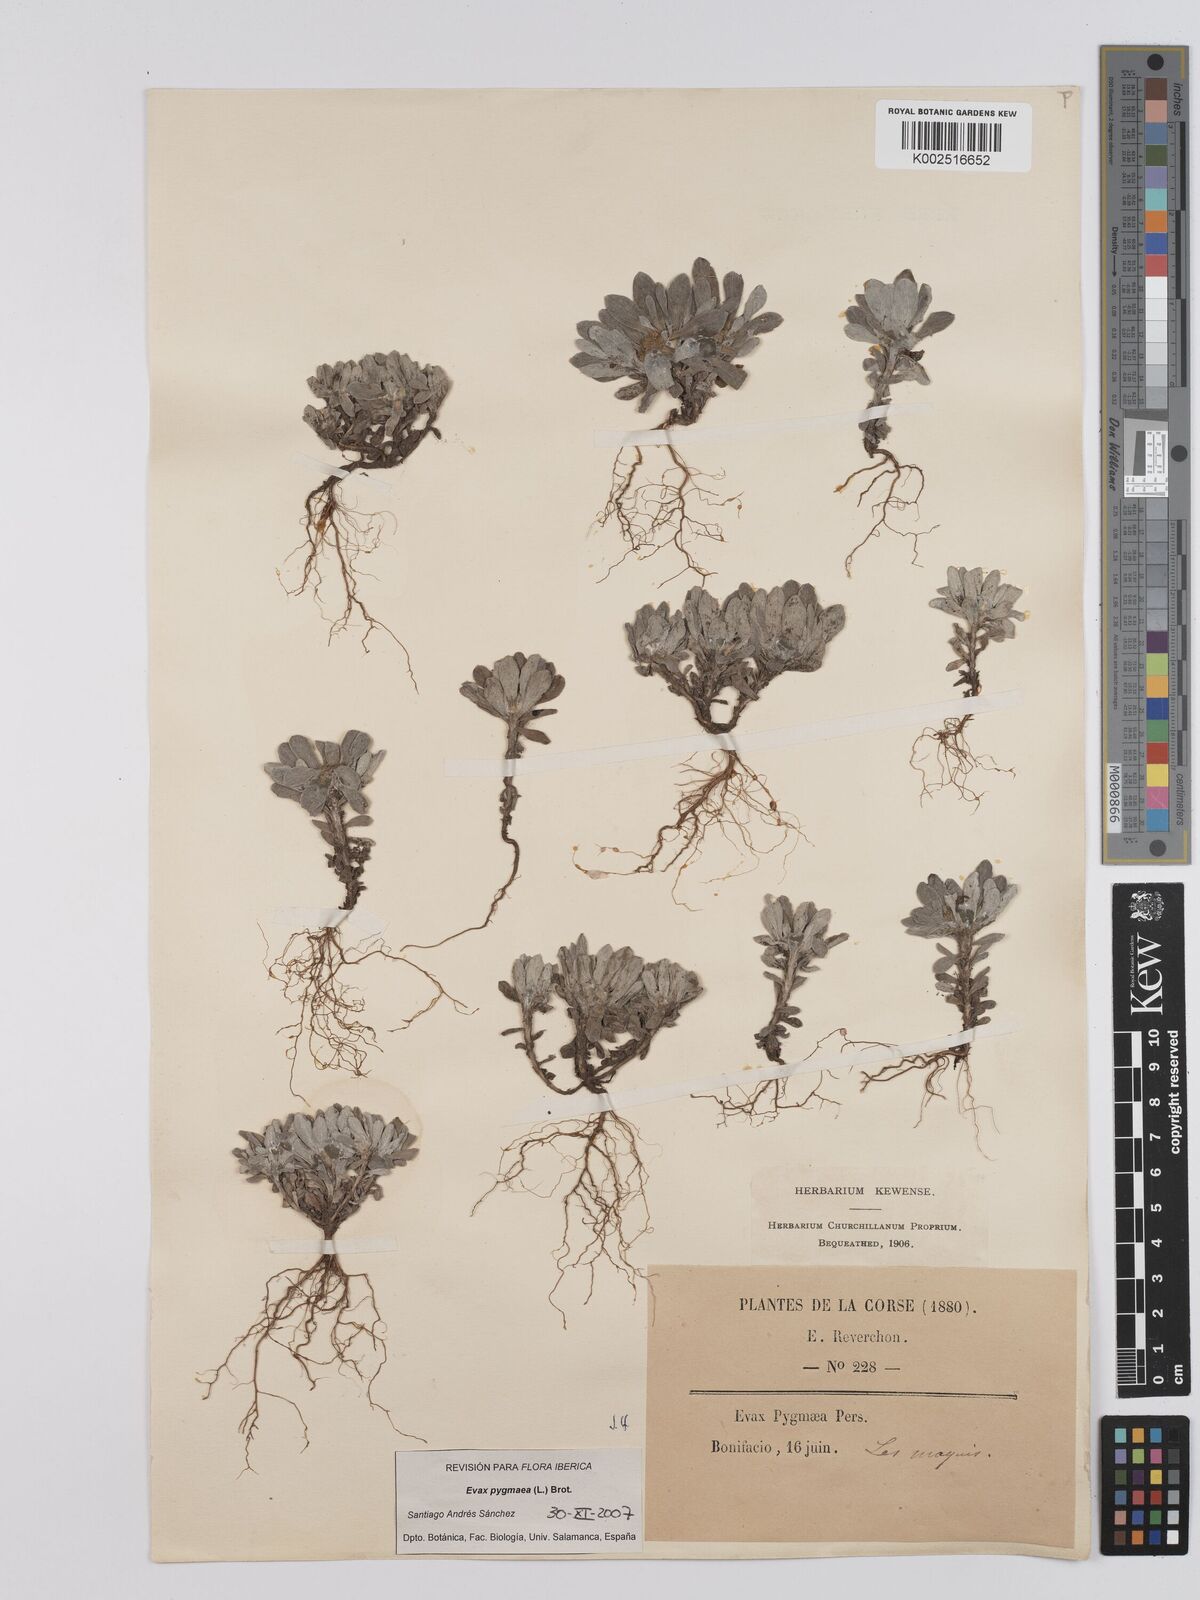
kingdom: Plantae
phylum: Tracheophyta
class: Magnoliopsida
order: Asterales
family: Asteraceae
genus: Filago
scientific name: Filago pygmaea
